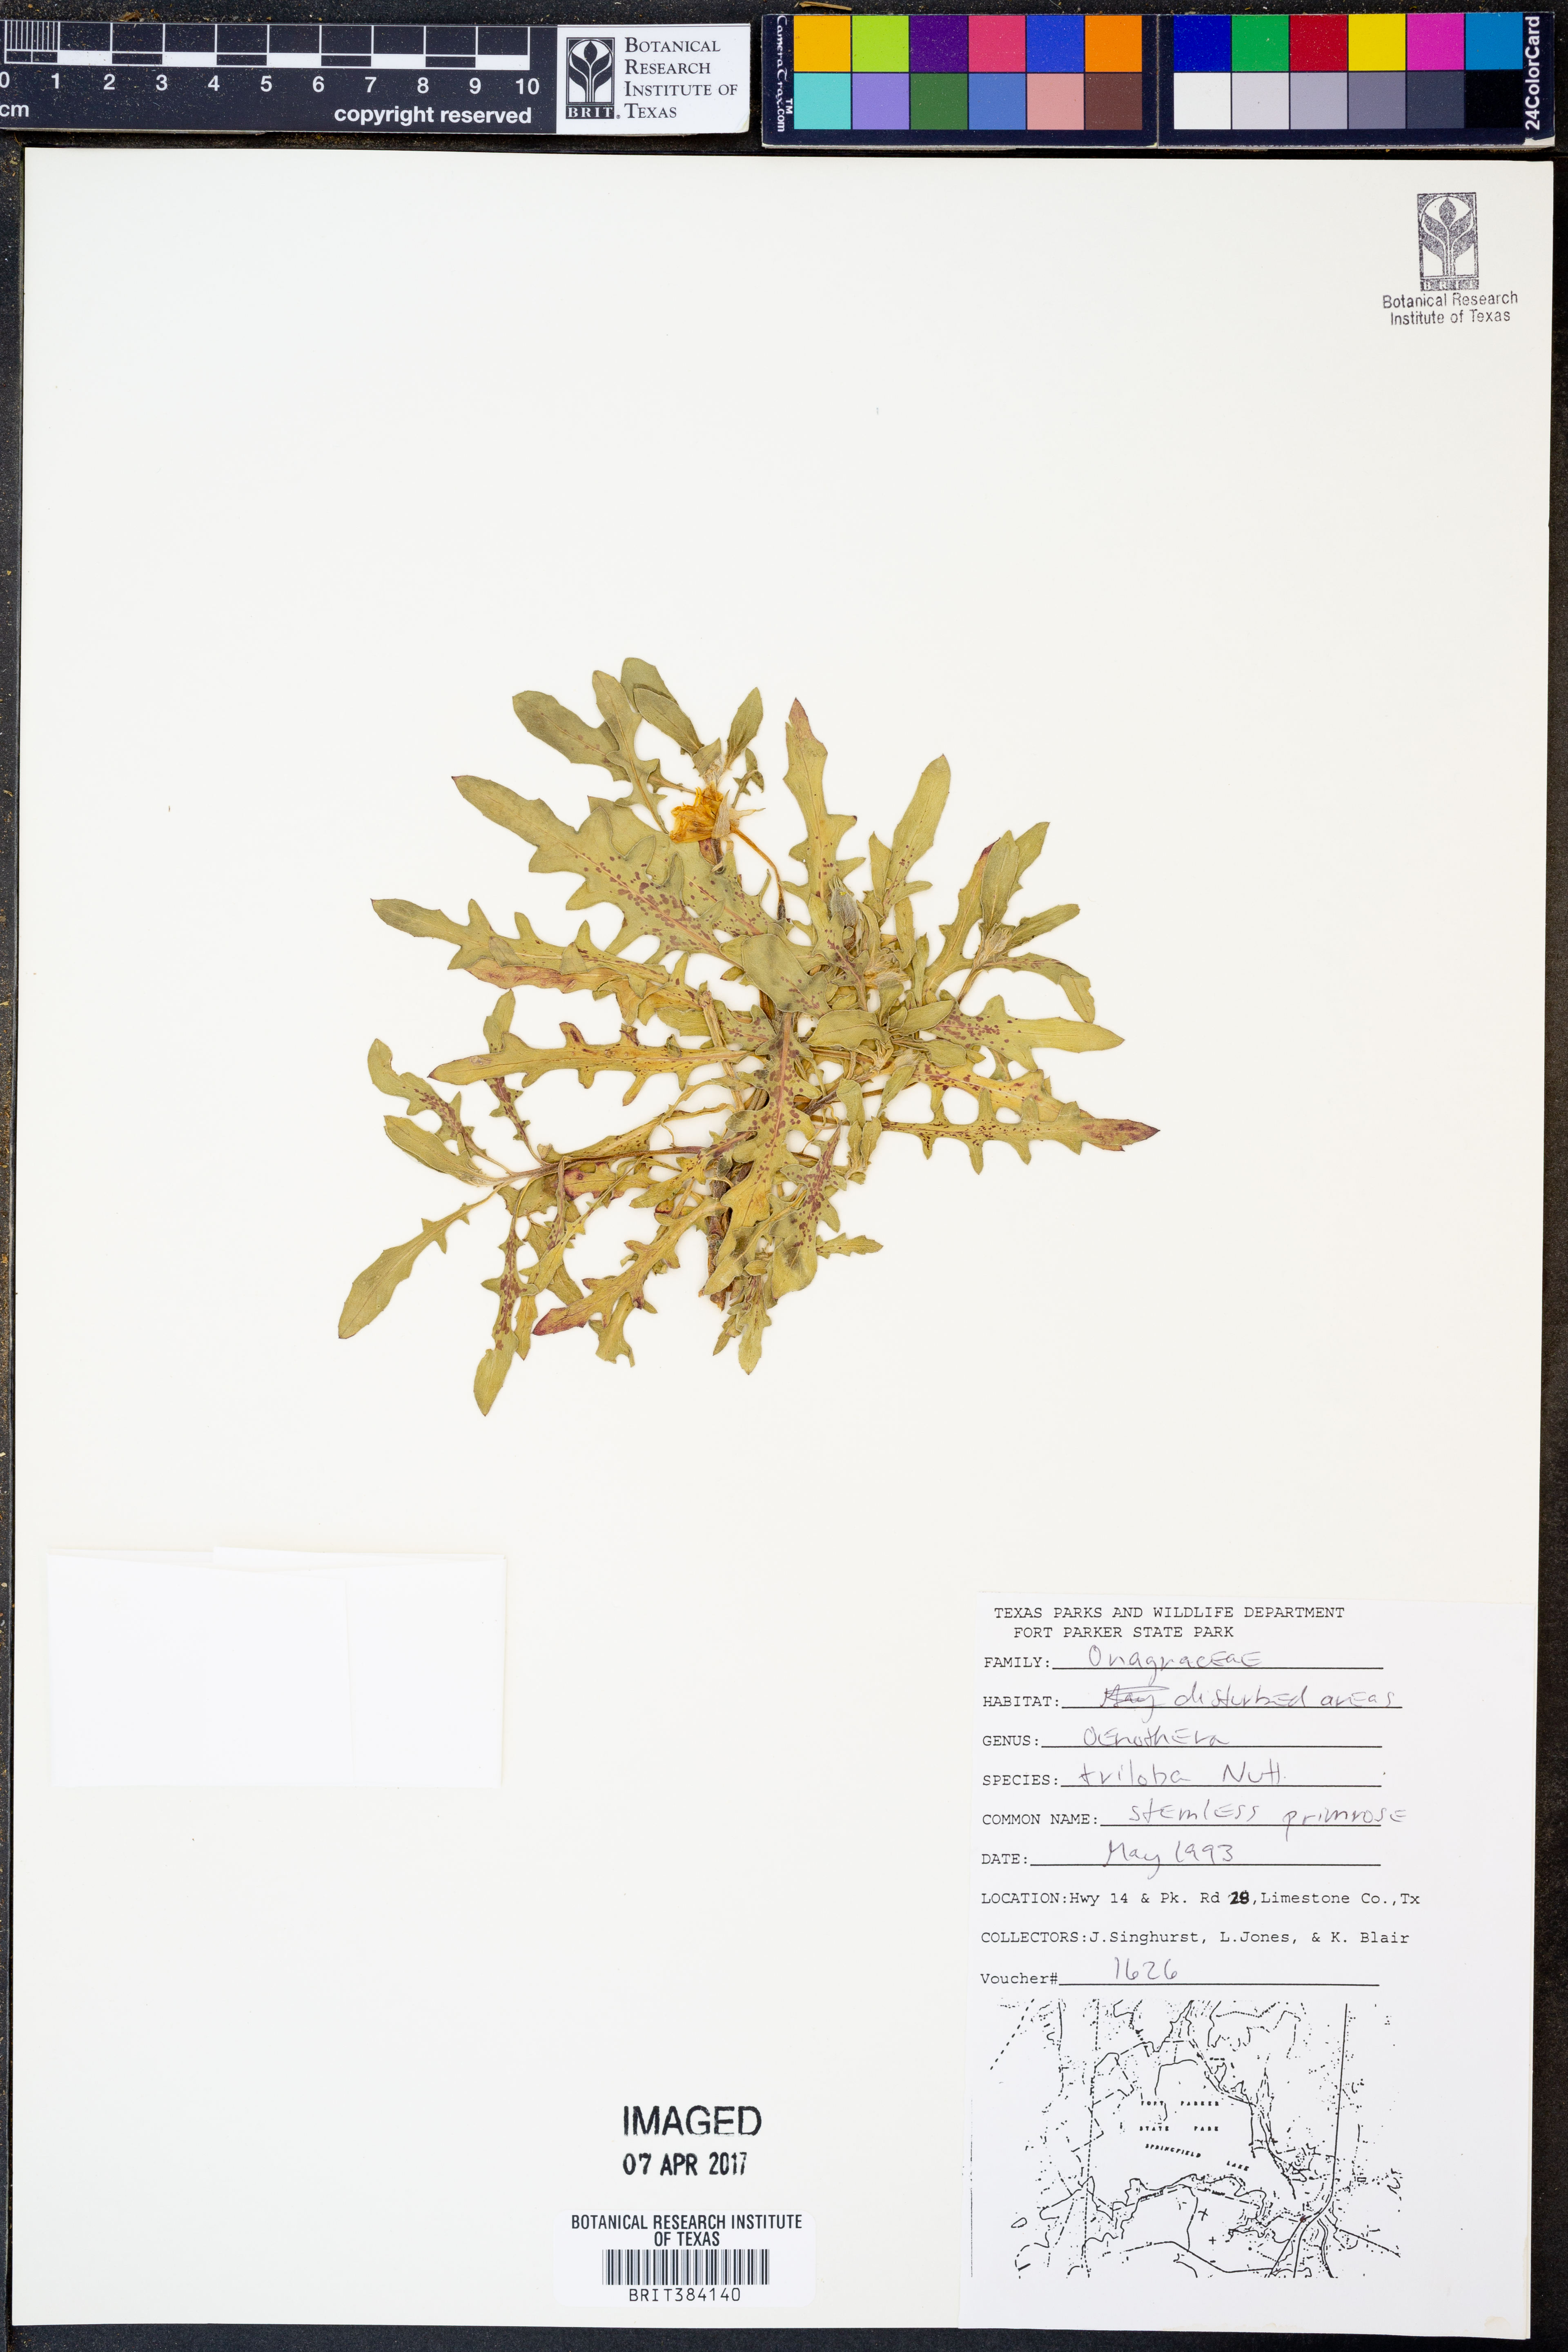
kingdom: Plantae
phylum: Tracheophyta
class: Magnoliopsida
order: Myrtales
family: Onagraceae
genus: Oenothera
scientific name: Oenothera triloba
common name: Sessile evening-primrose
